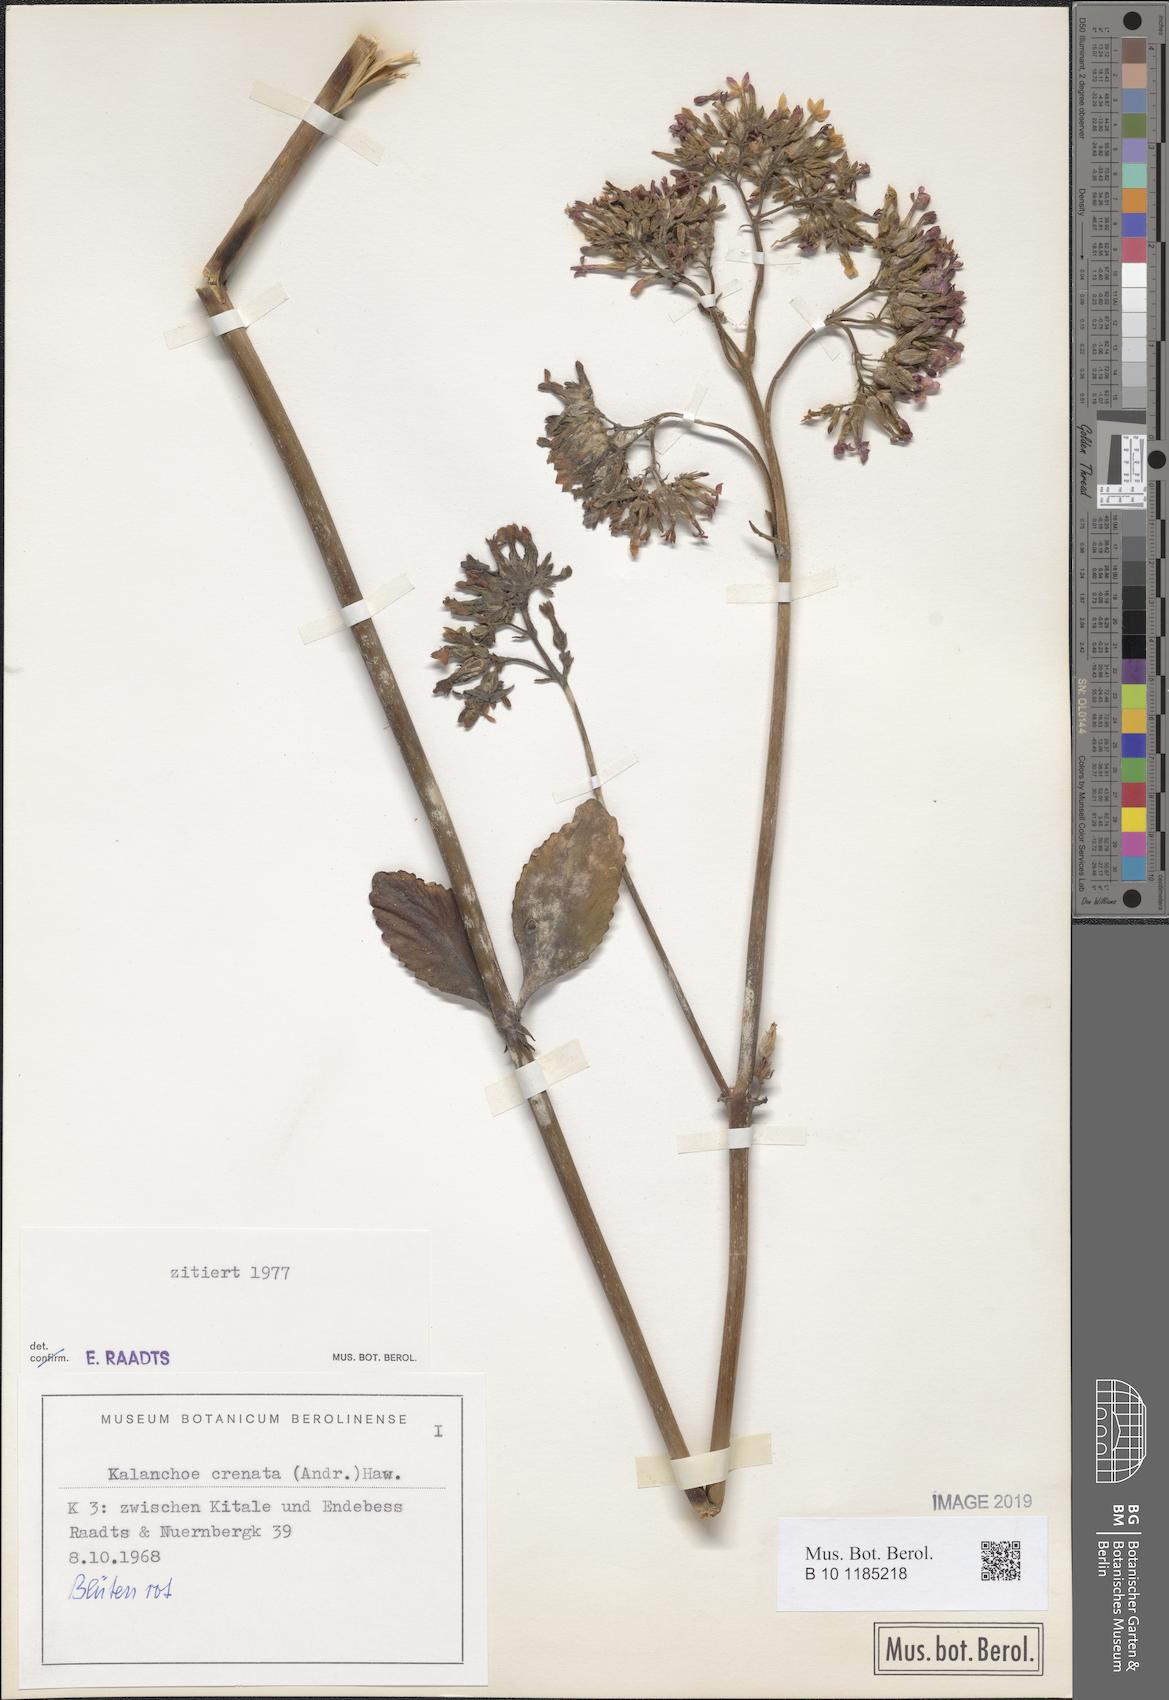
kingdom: Plantae
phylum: Tracheophyta
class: Magnoliopsida
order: Saxifragales
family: Crassulaceae
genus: Kalanchoe
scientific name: Kalanchoe crenata
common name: Neverdie
